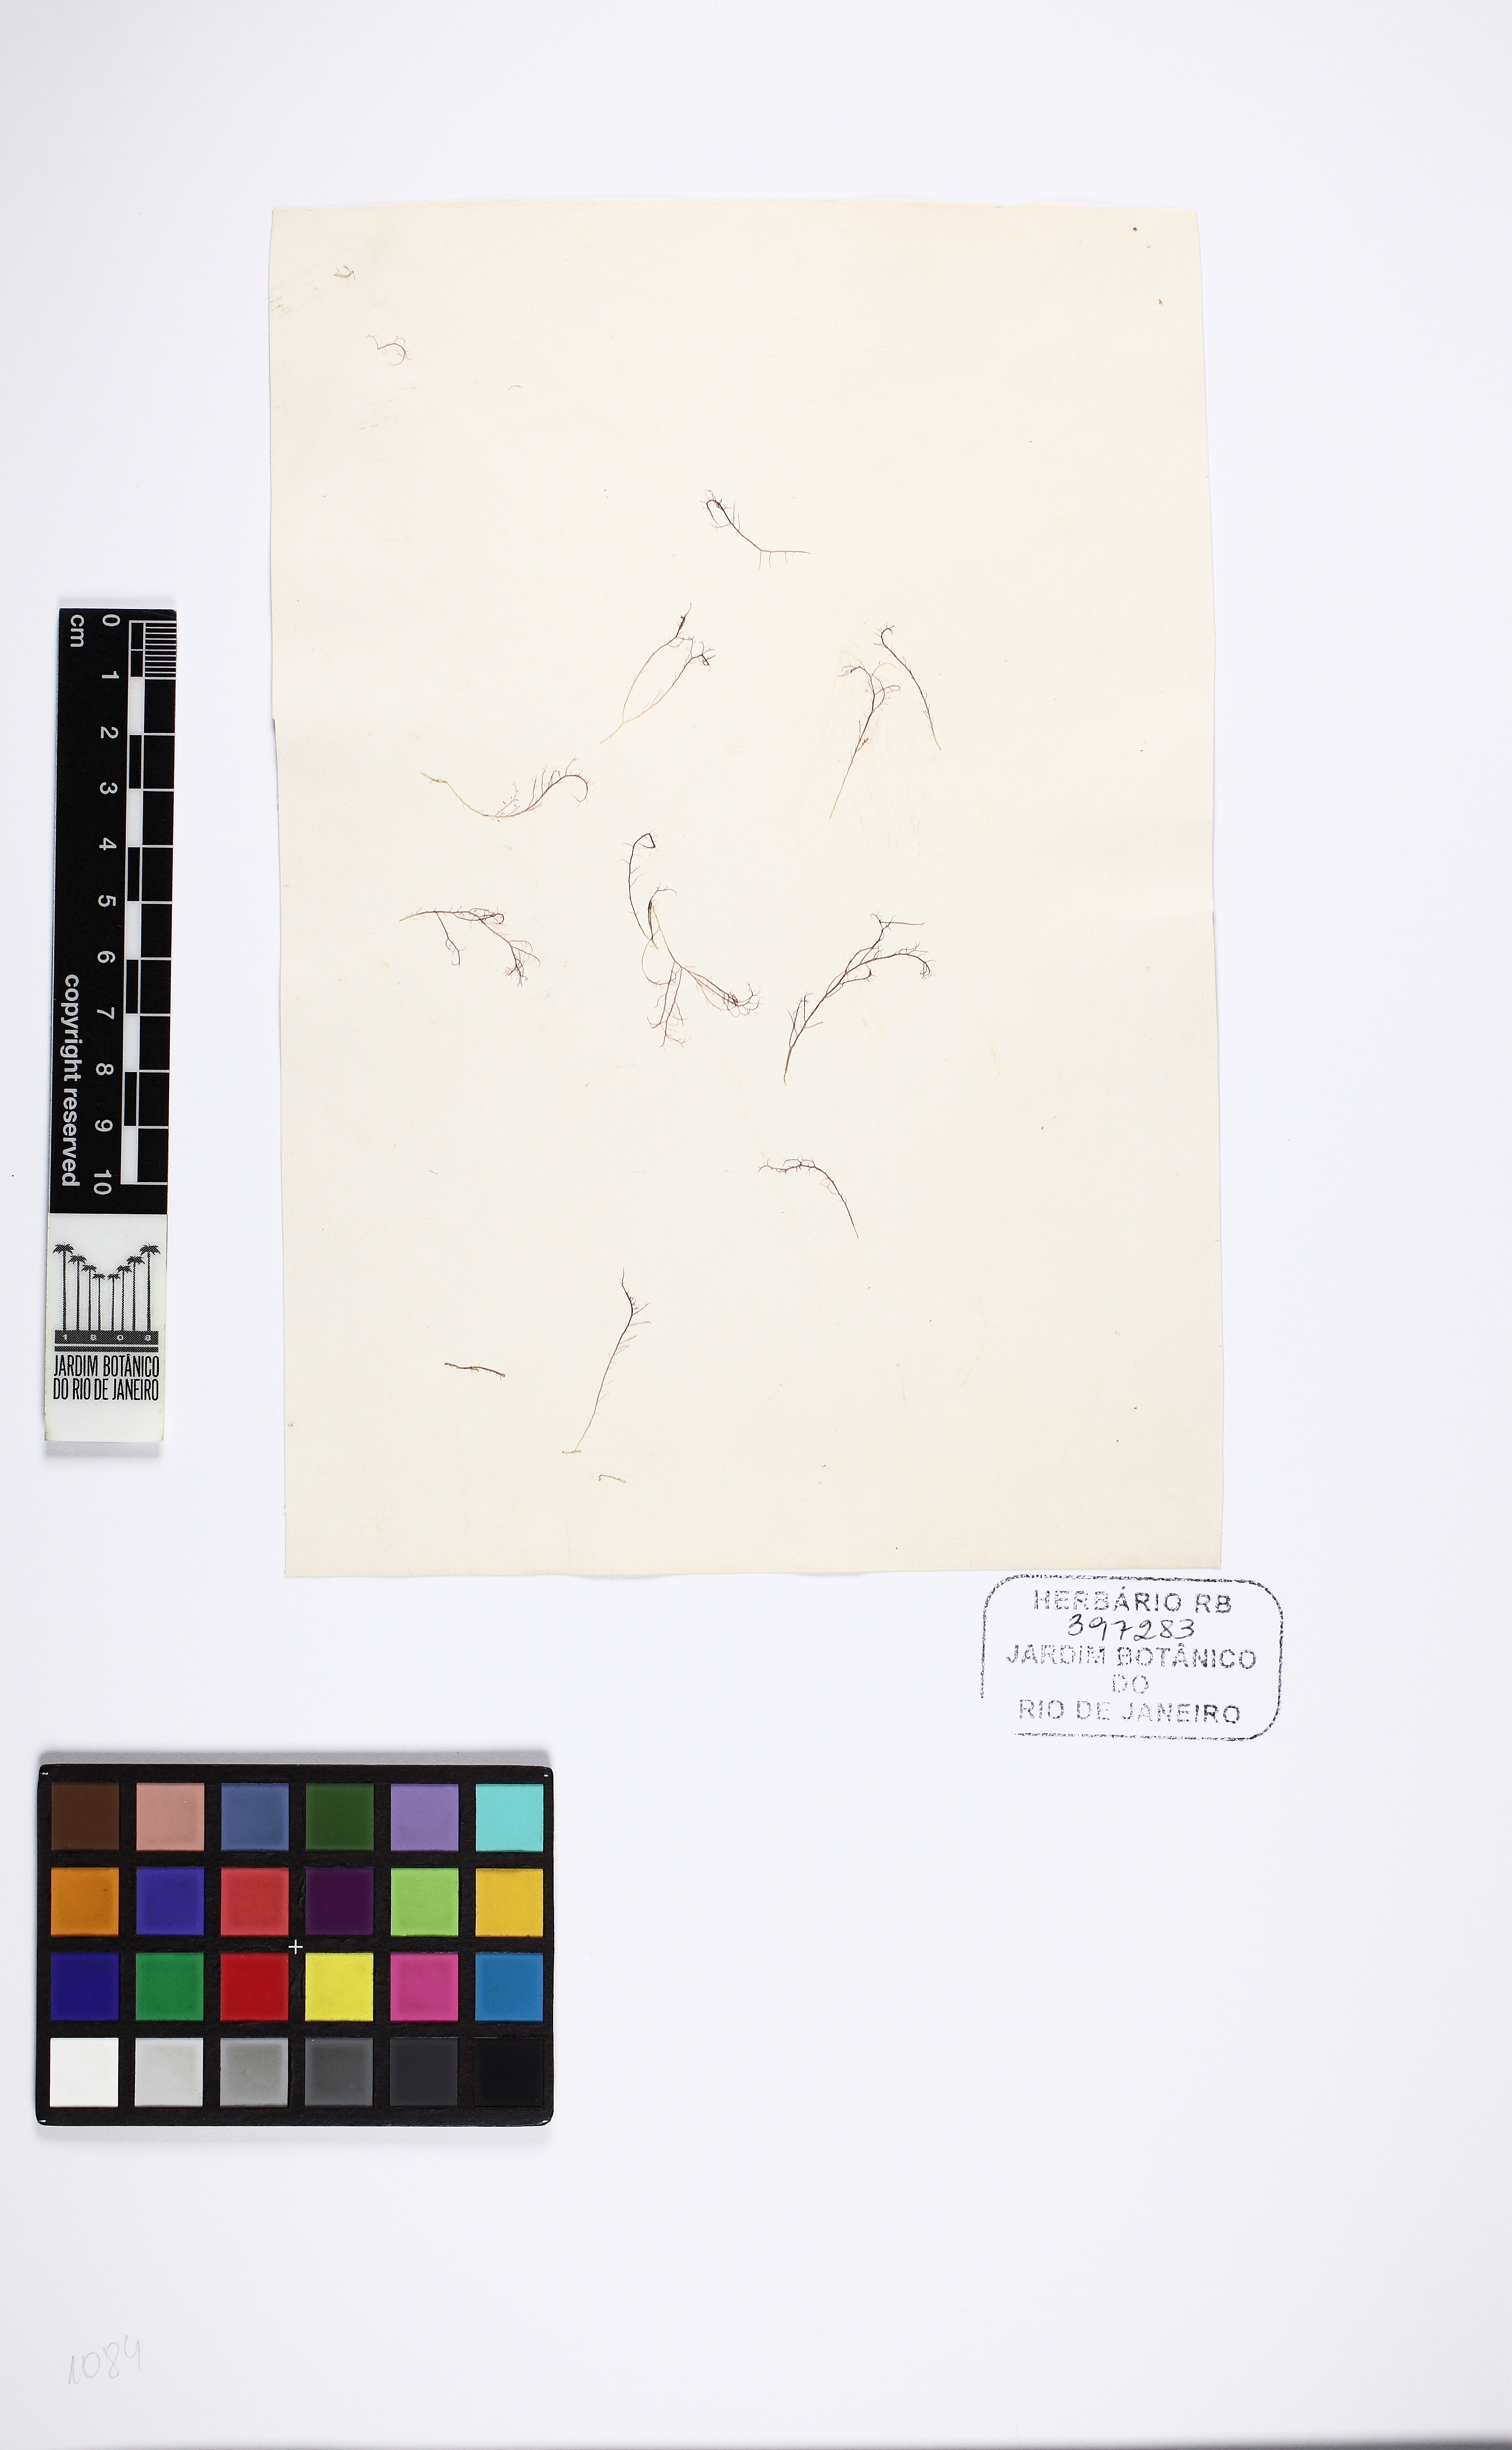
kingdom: Plantae
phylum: Rhodophyta
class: Florideophyceae
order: Gigartinales
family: Cystocloniaceae
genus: Hypnea
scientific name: Hypnea musciformis
